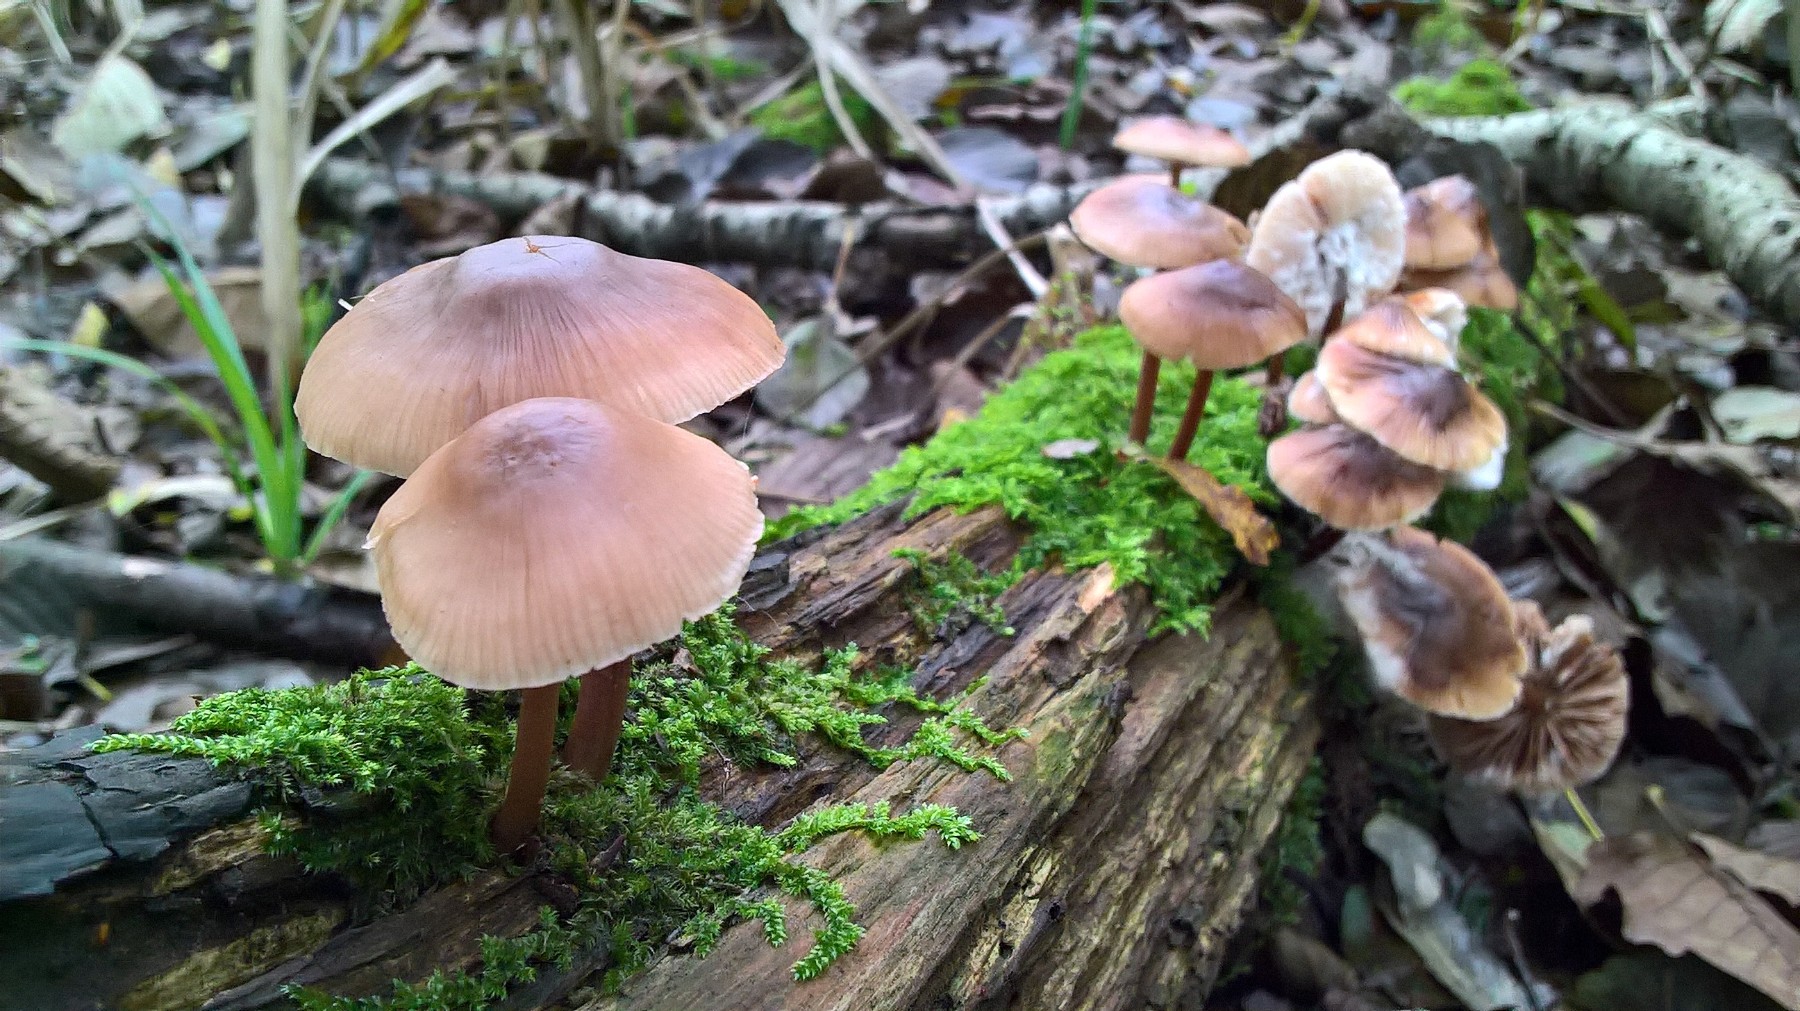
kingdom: Fungi
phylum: Basidiomycota
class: Agaricomycetes
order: Agaricales
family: Mycenaceae
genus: Mycena
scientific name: Mycena galericulata
